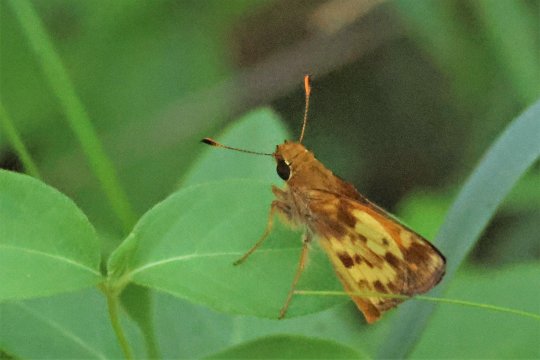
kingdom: Animalia
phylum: Arthropoda
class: Insecta
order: Lepidoptera
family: Hesperiidae
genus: Lon
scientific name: Lon zabulon
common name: Zabulon Skipper
